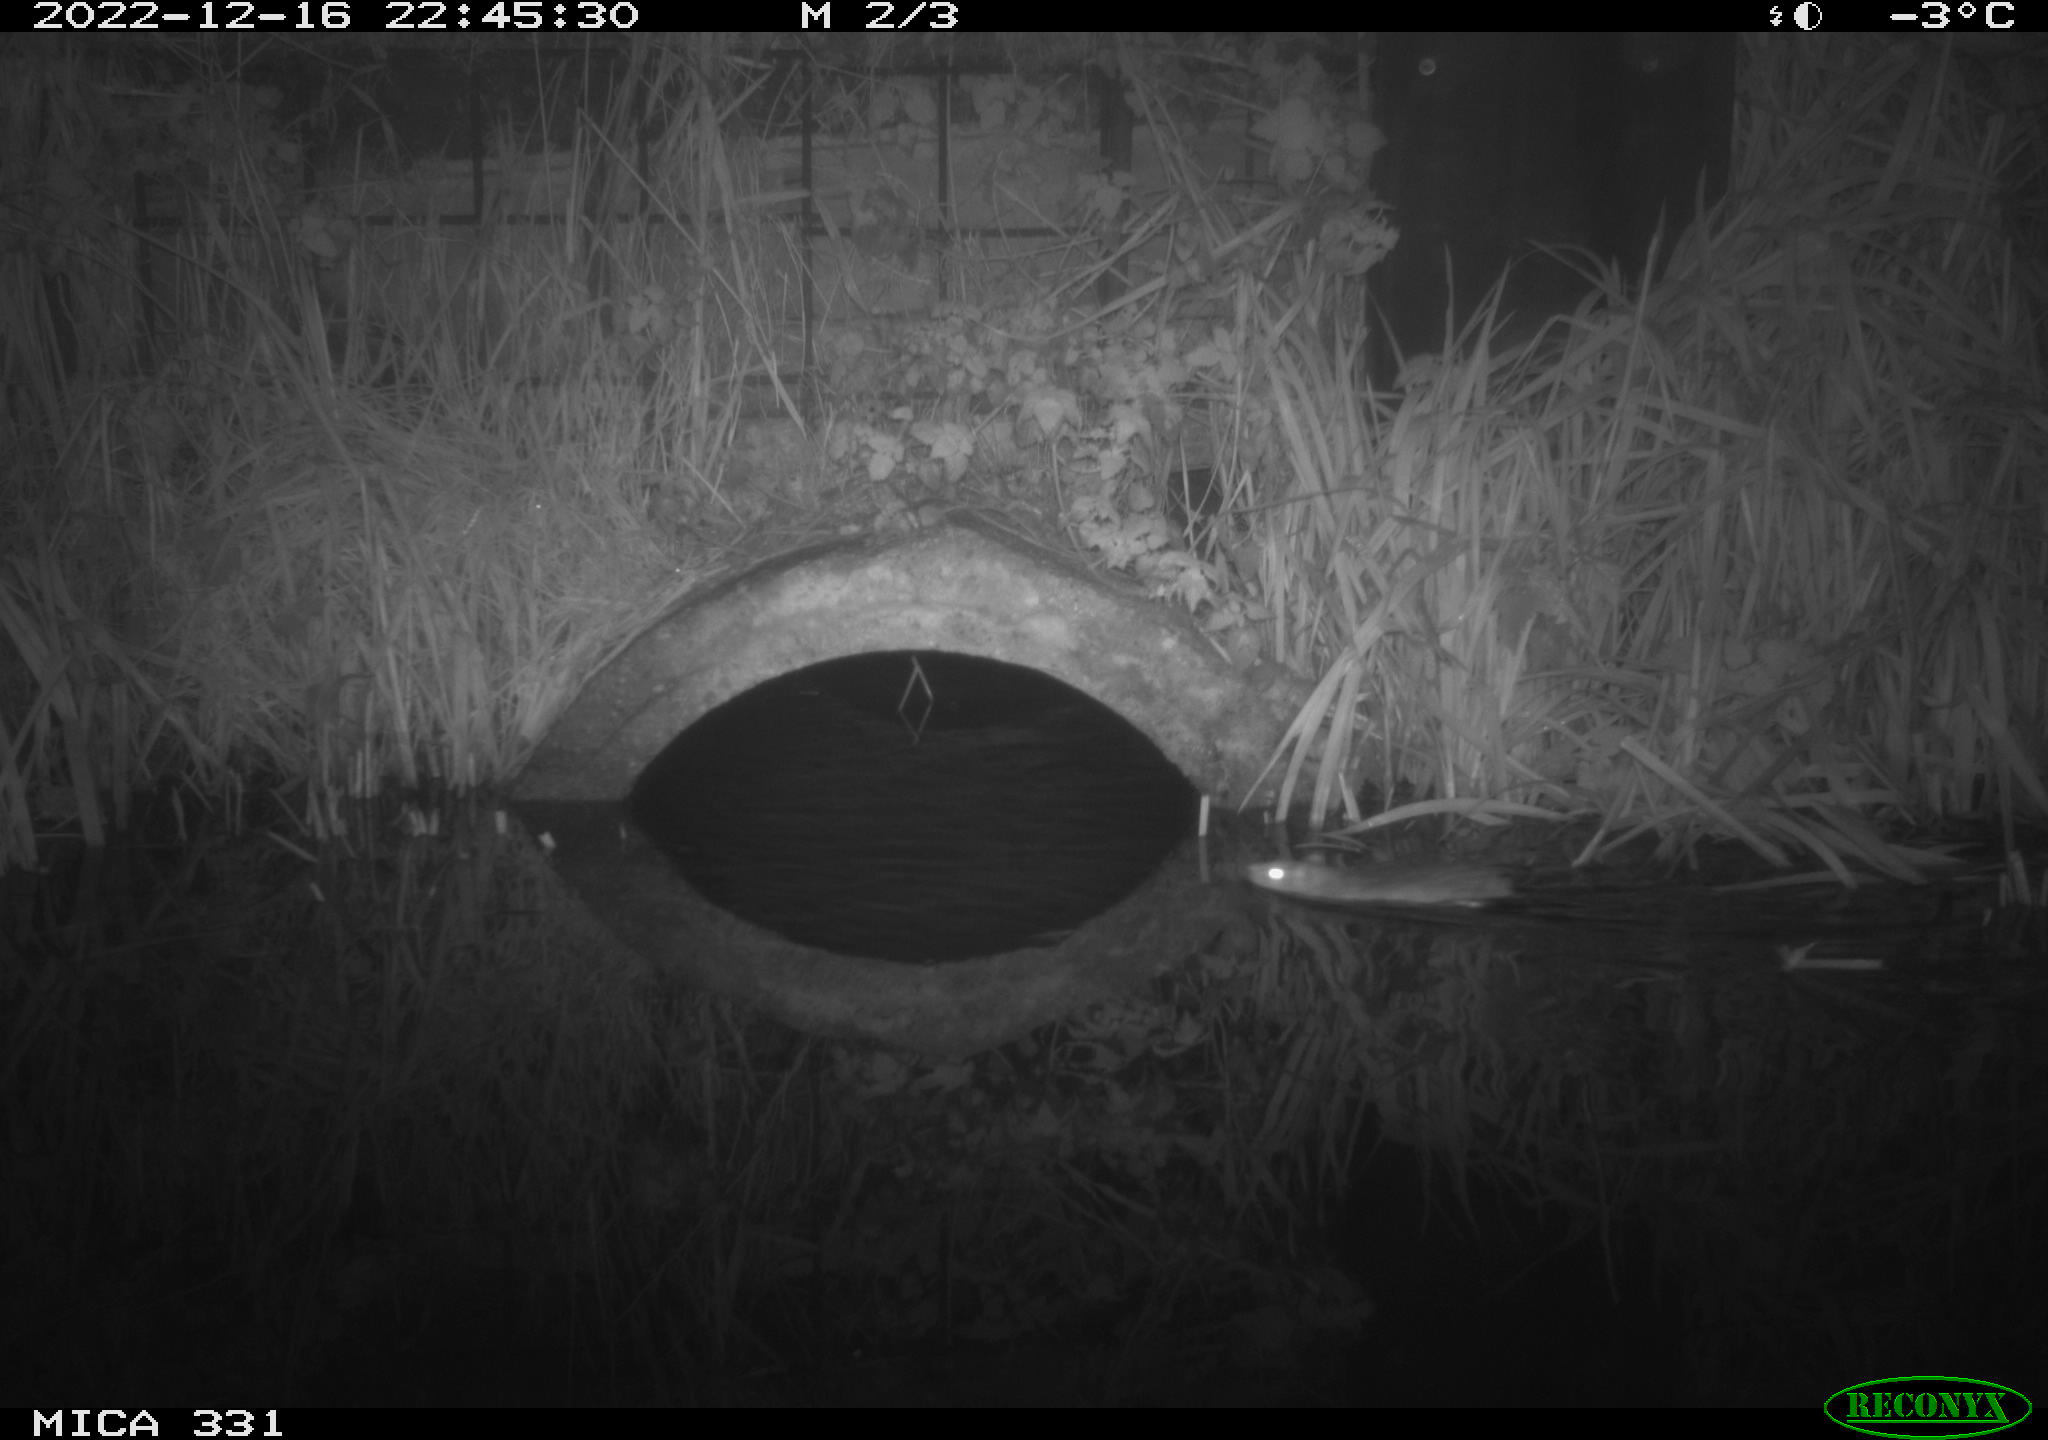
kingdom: Animalia
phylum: Chordata
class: Mammalia
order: Rodentia
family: Muridae
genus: Rattus
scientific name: Rattus norvegicus
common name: Brown rat
